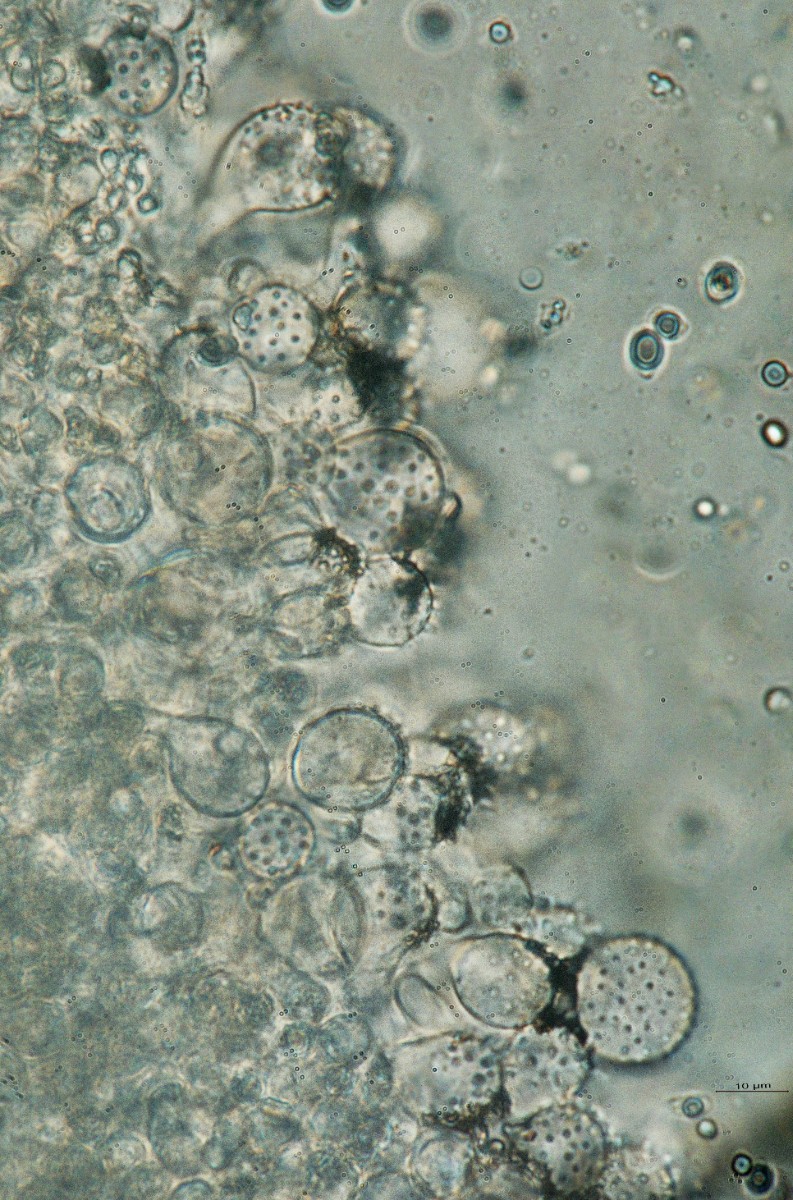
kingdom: Fungi
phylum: Basidiomycota
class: Agaricomycetes
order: Agaricales
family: Mycenaceae
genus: Mycena
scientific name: Mycena metata
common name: rødlig huesvamp
